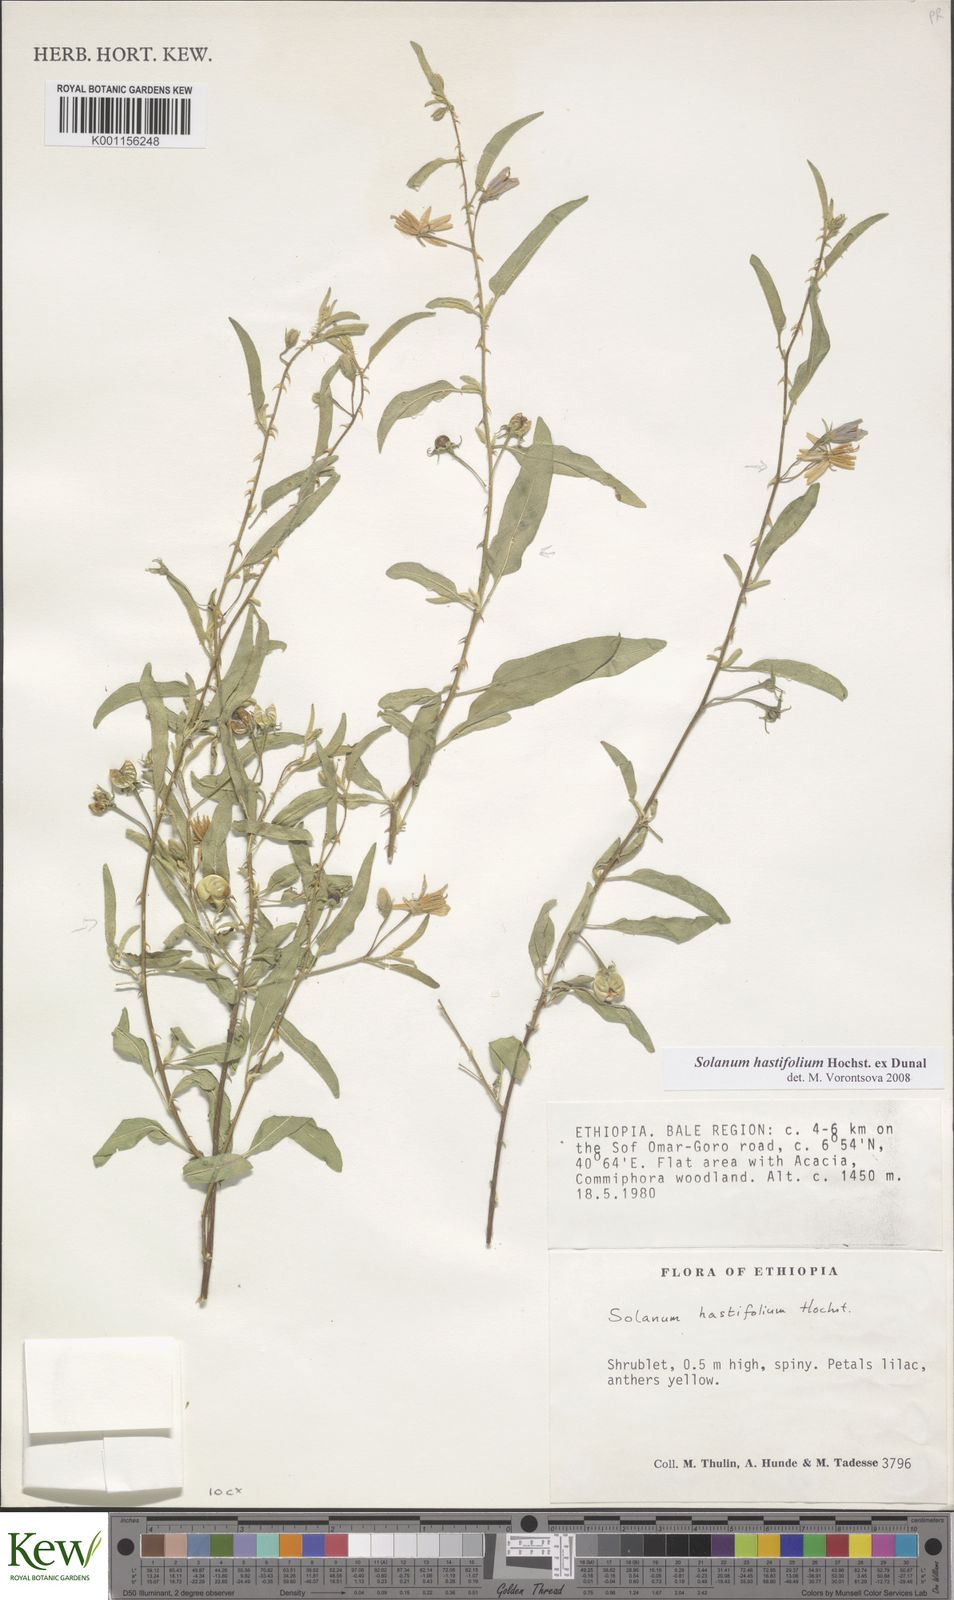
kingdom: Plantae
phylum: Tracheophyta
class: Magnoliopsida
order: Solanales
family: Solanaceae
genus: Solanum
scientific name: Solanum hastifolium
